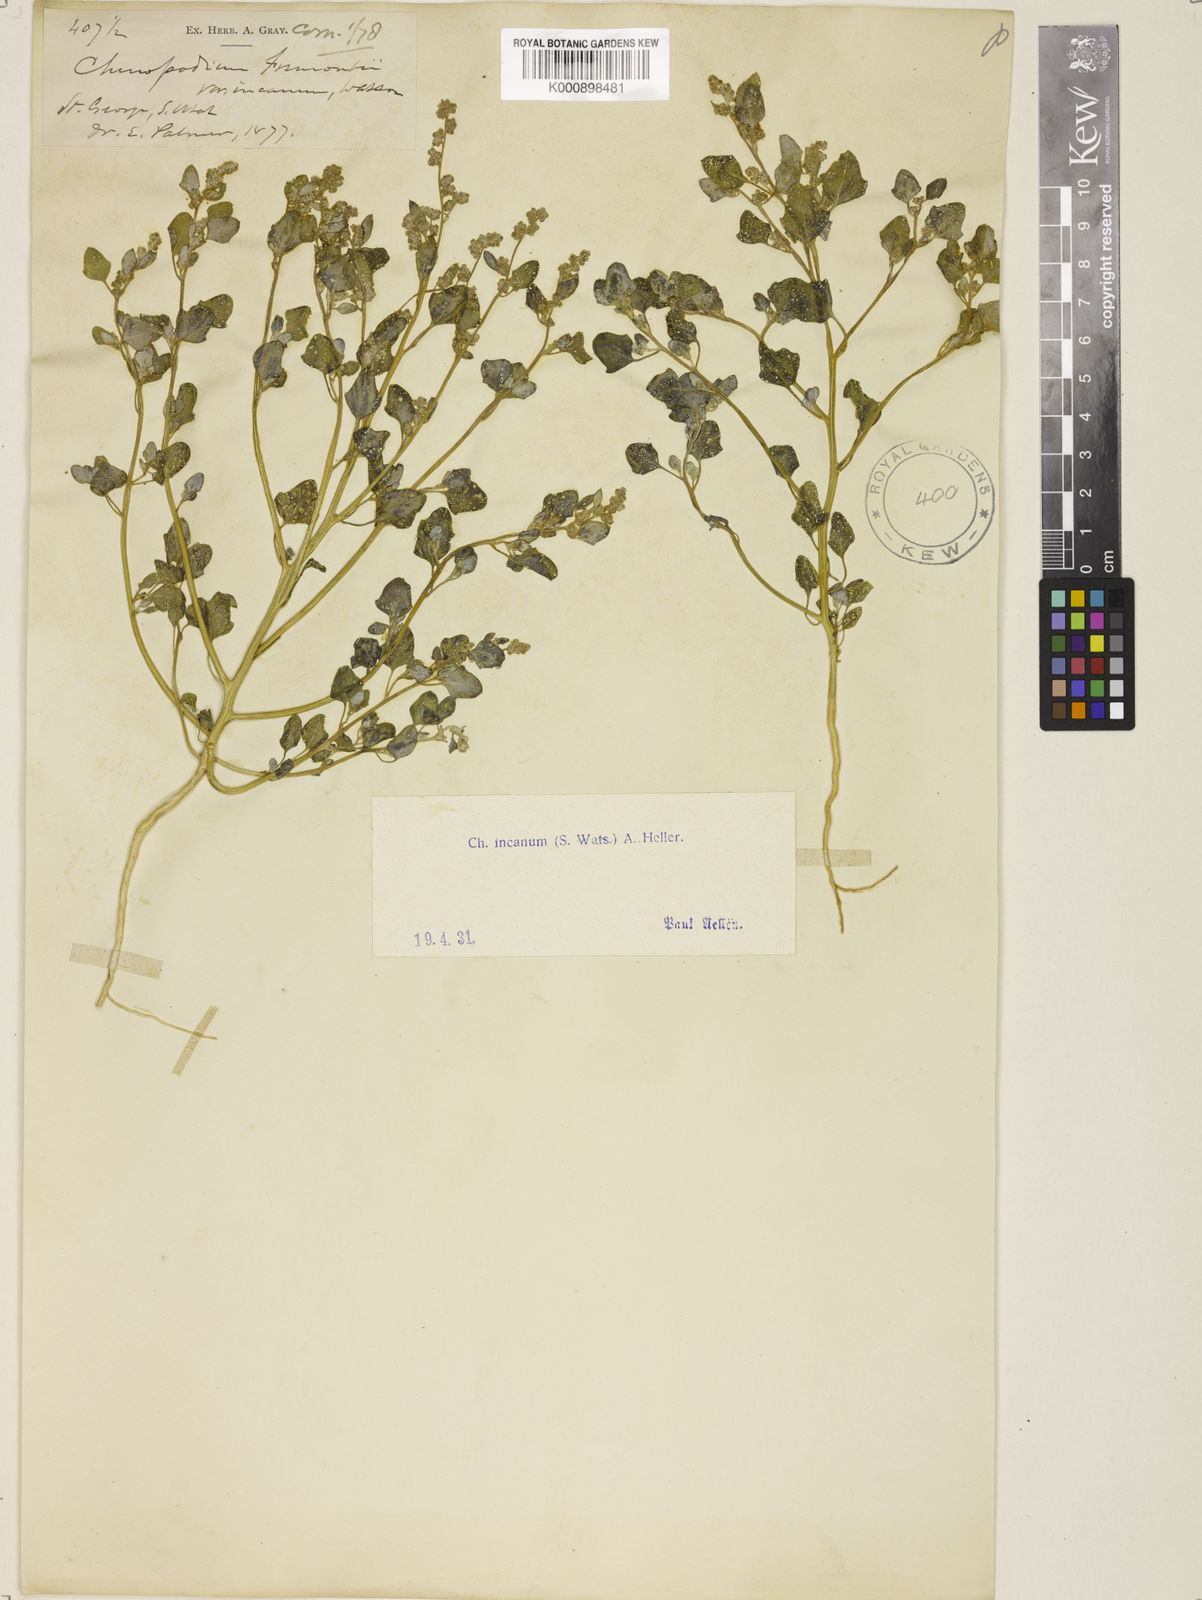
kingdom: Plantae
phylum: Tracheophyta
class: Magnoliopsida
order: Caryophyllales
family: Amaranthaceae
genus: Chenopodium
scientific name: Chenopodium incanum
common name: Hoary goosefoot
